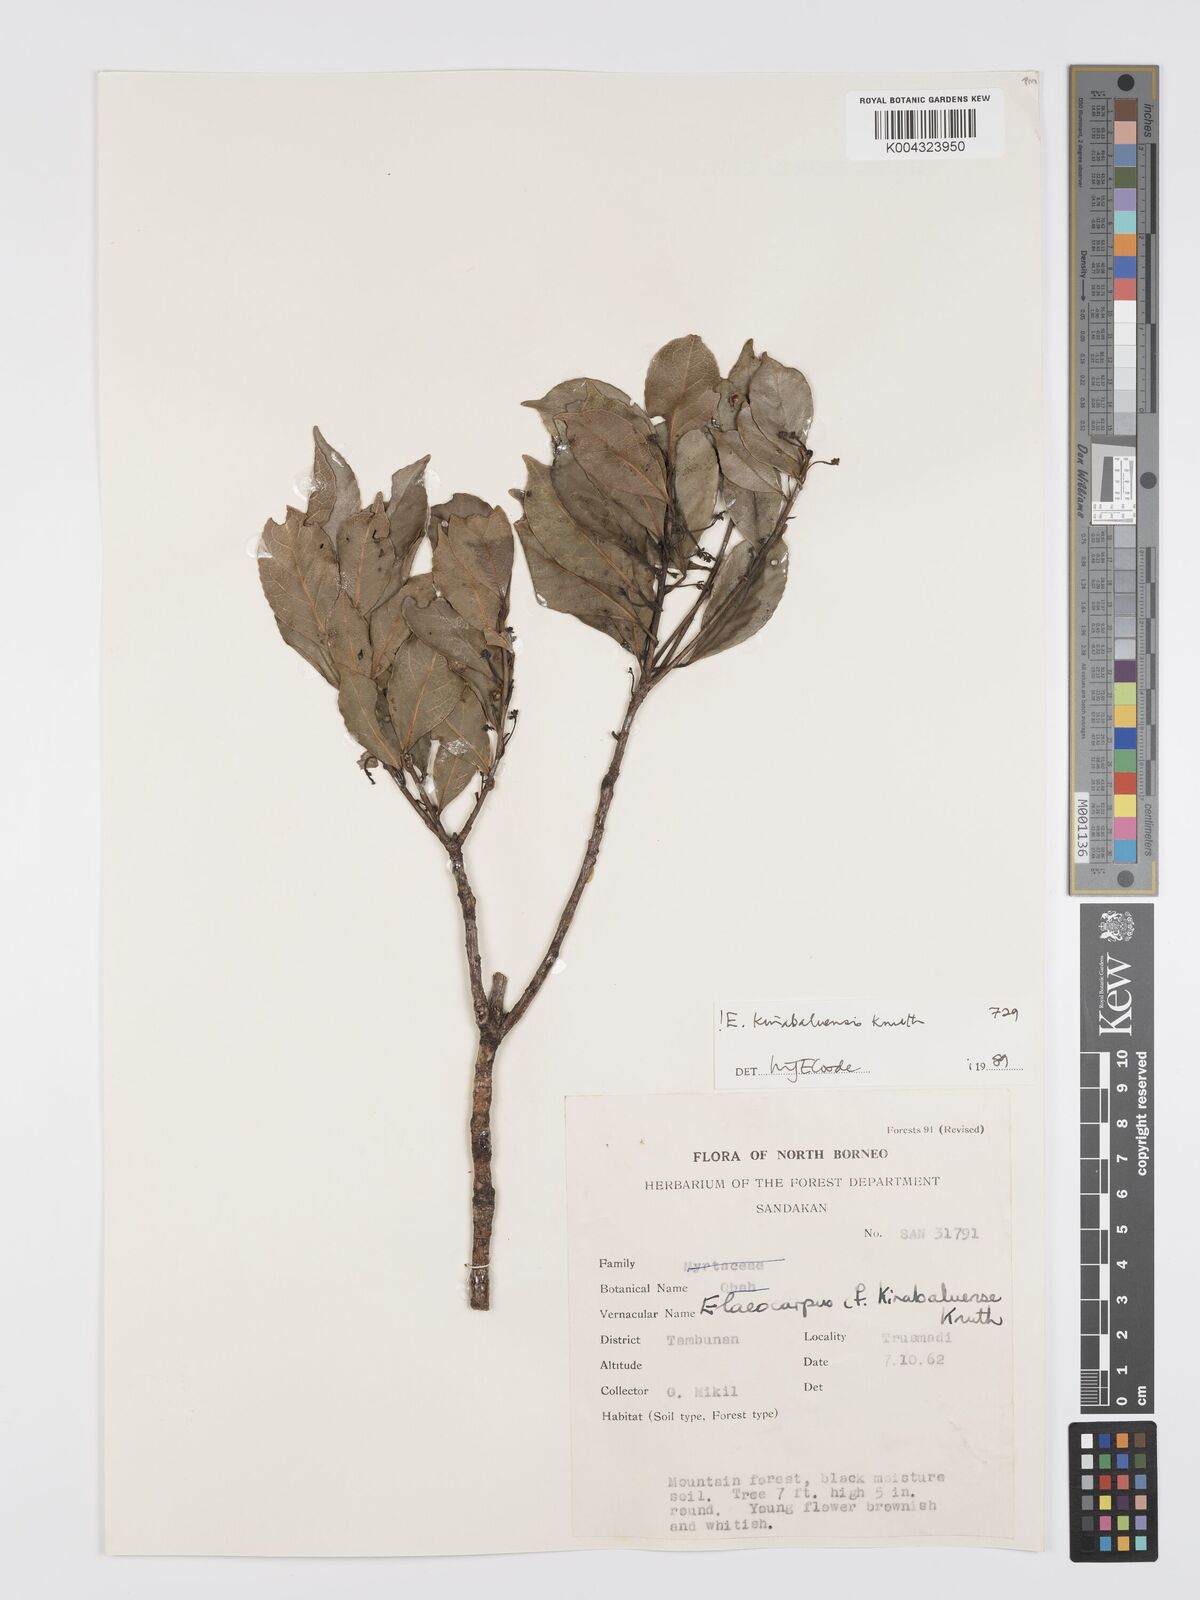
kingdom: Plantae
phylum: Tracheophyta
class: Magnoliopsida
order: Oxalidales
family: Elaeocarpaceae
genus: Elaeocarpus
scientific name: Elaeocarpus kinabaluensis
